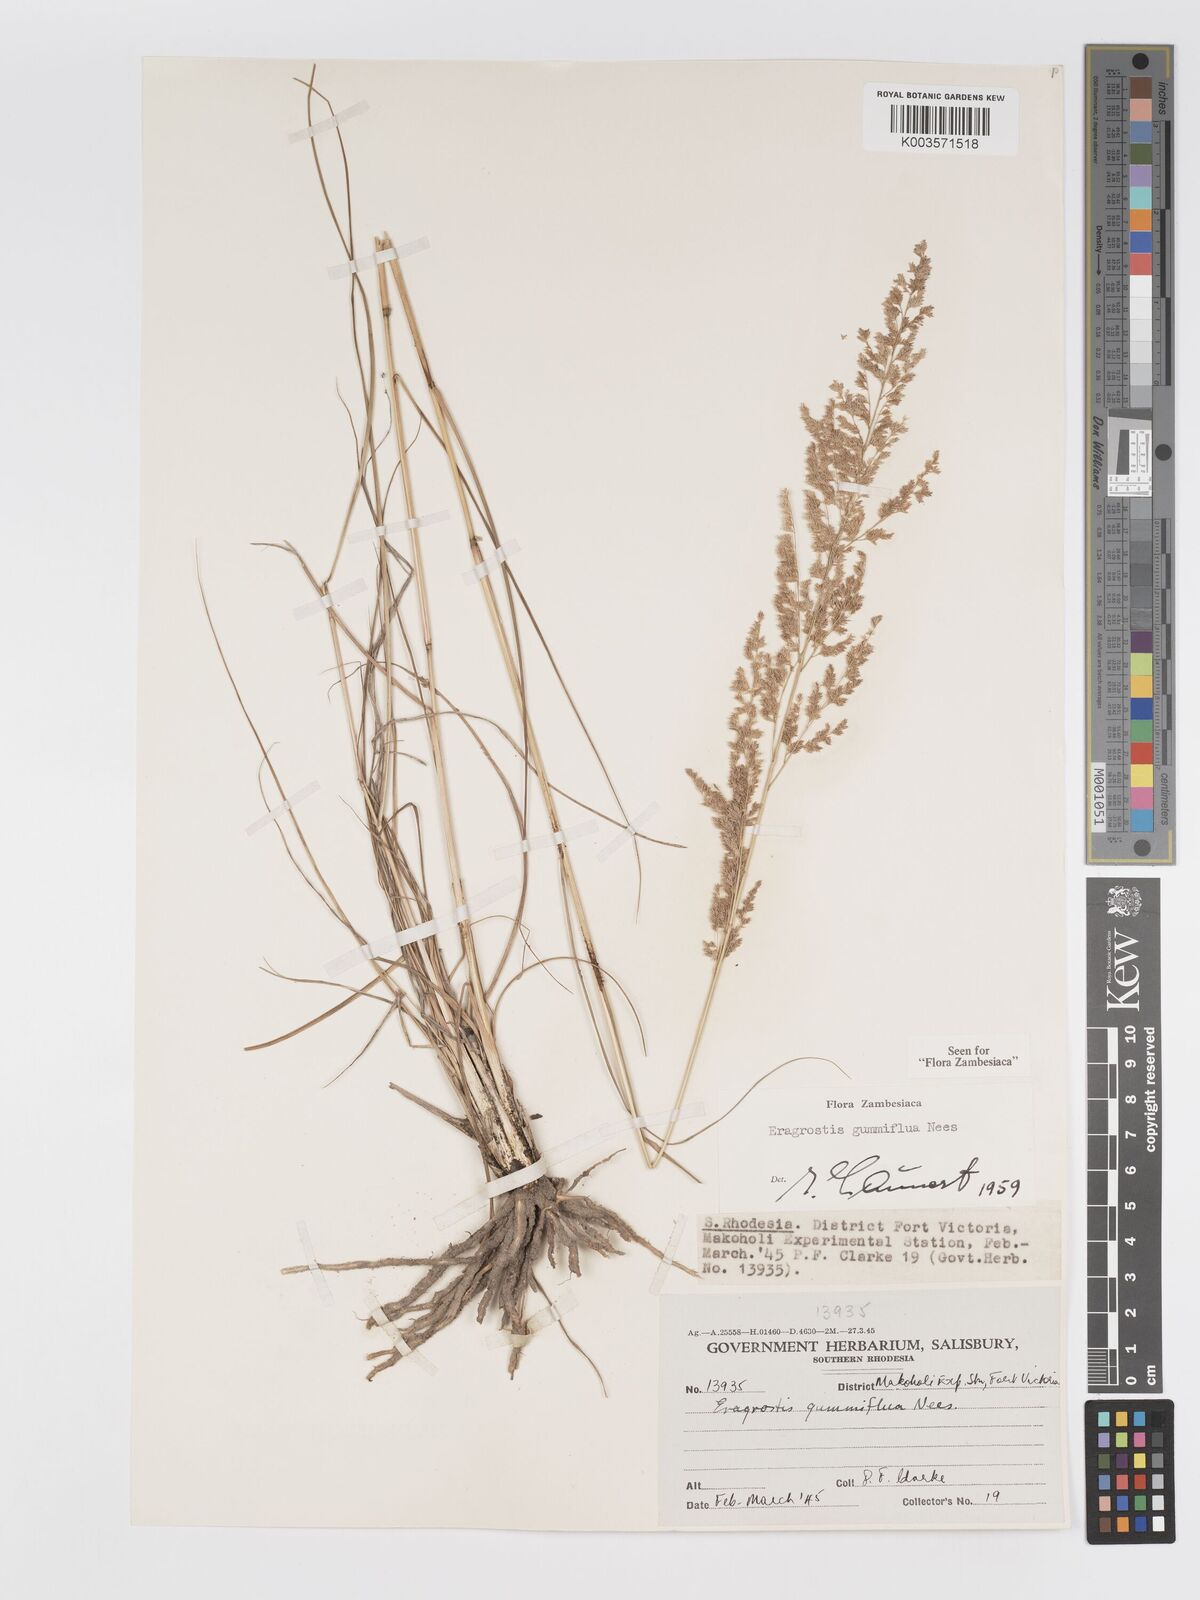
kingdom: Plantae
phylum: Tracheophyta
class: Liliopsida
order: Poales
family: Poaceae
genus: Eragrostis
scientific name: Eragrostis gummiflua
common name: Gum grass
